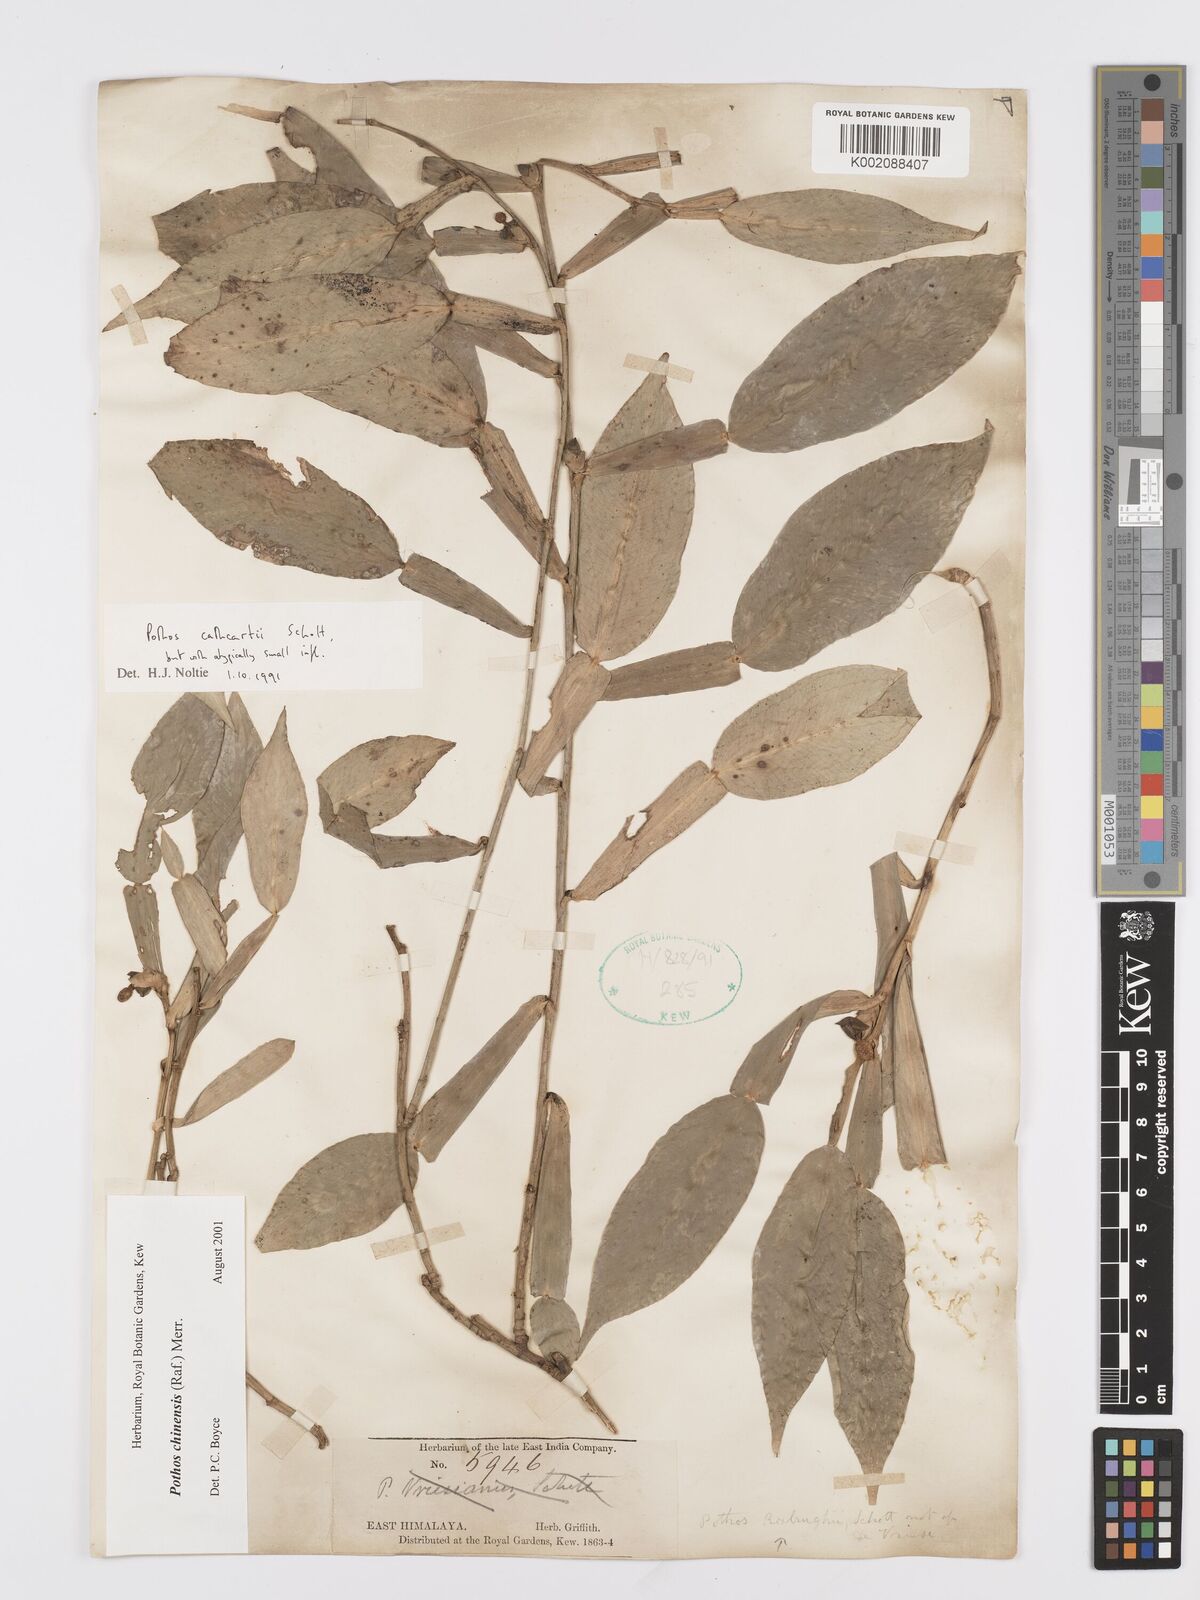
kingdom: Plantae
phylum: Tracheophyta
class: Liliopsida
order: Alismatales
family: Araceae
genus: Pothos
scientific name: Pothos chinensis
